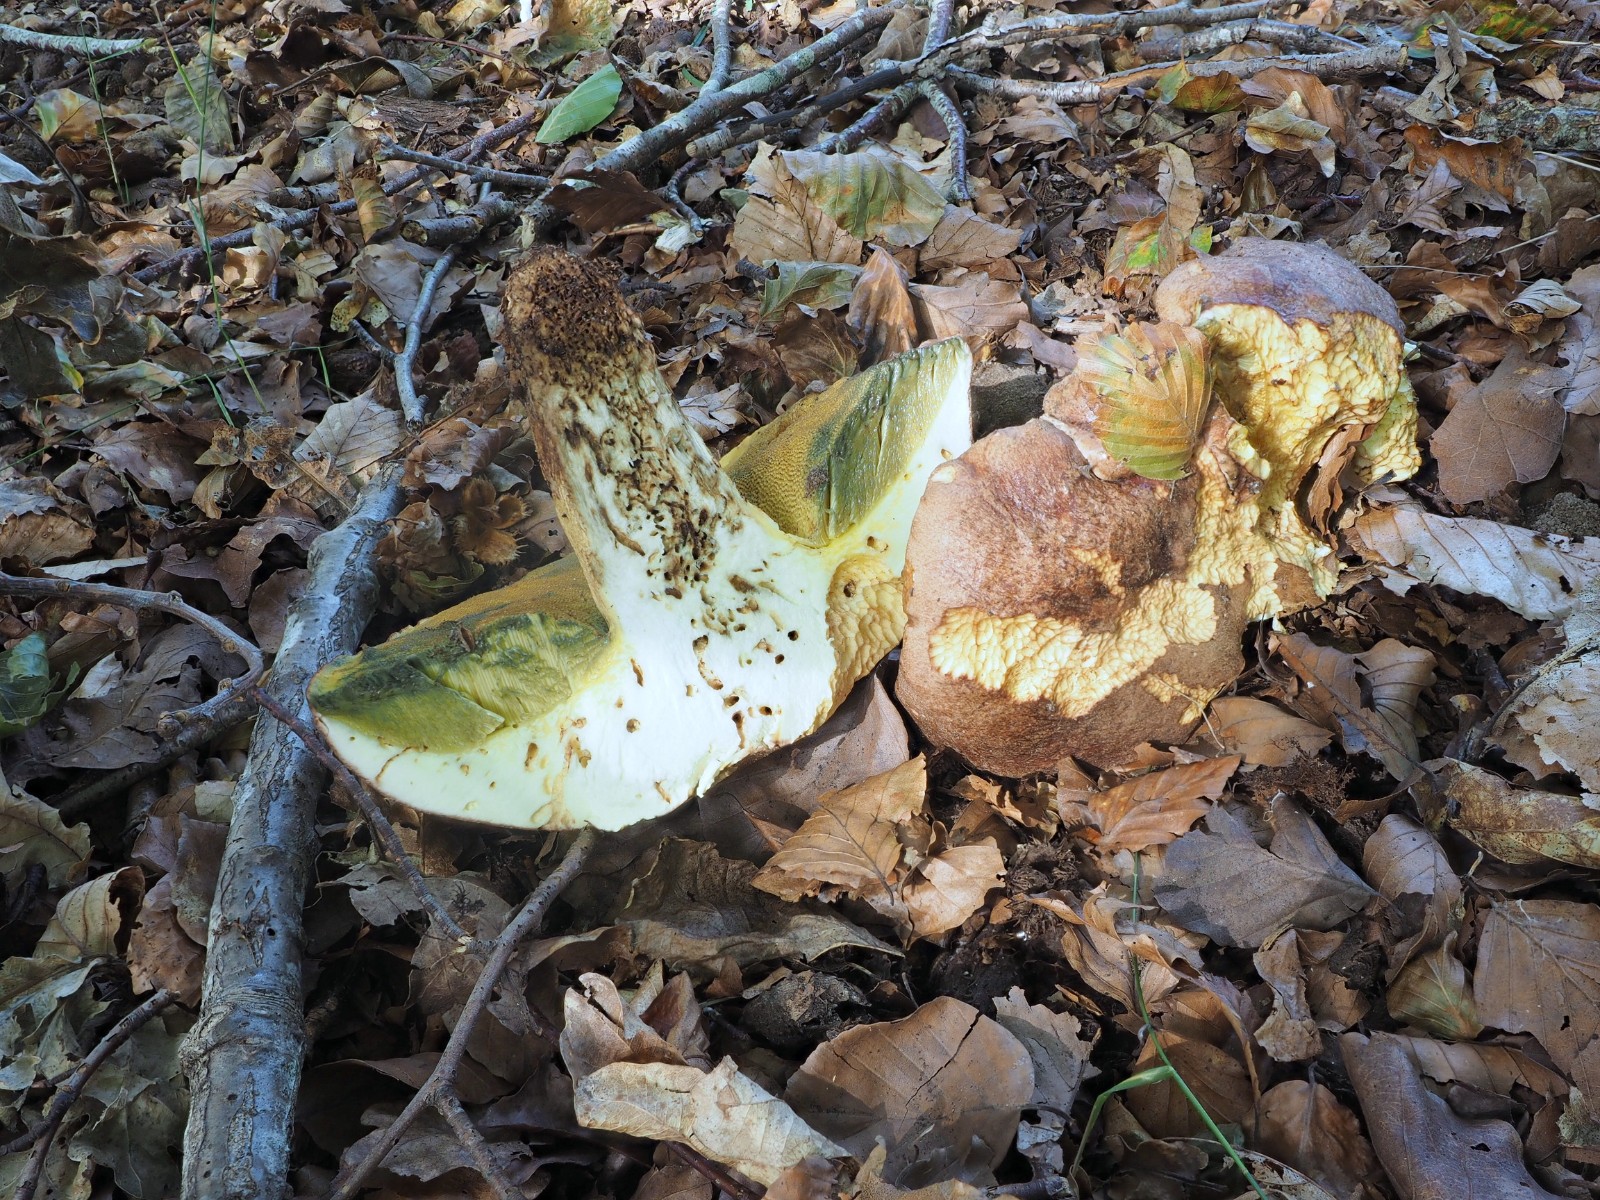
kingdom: Fungi
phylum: Basidiomycota
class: Agaricomycetes
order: Boletales
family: Boletaceae
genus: Butyriboletus
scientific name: Butyriboletus appendiculatus
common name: tenstokket rørhat
